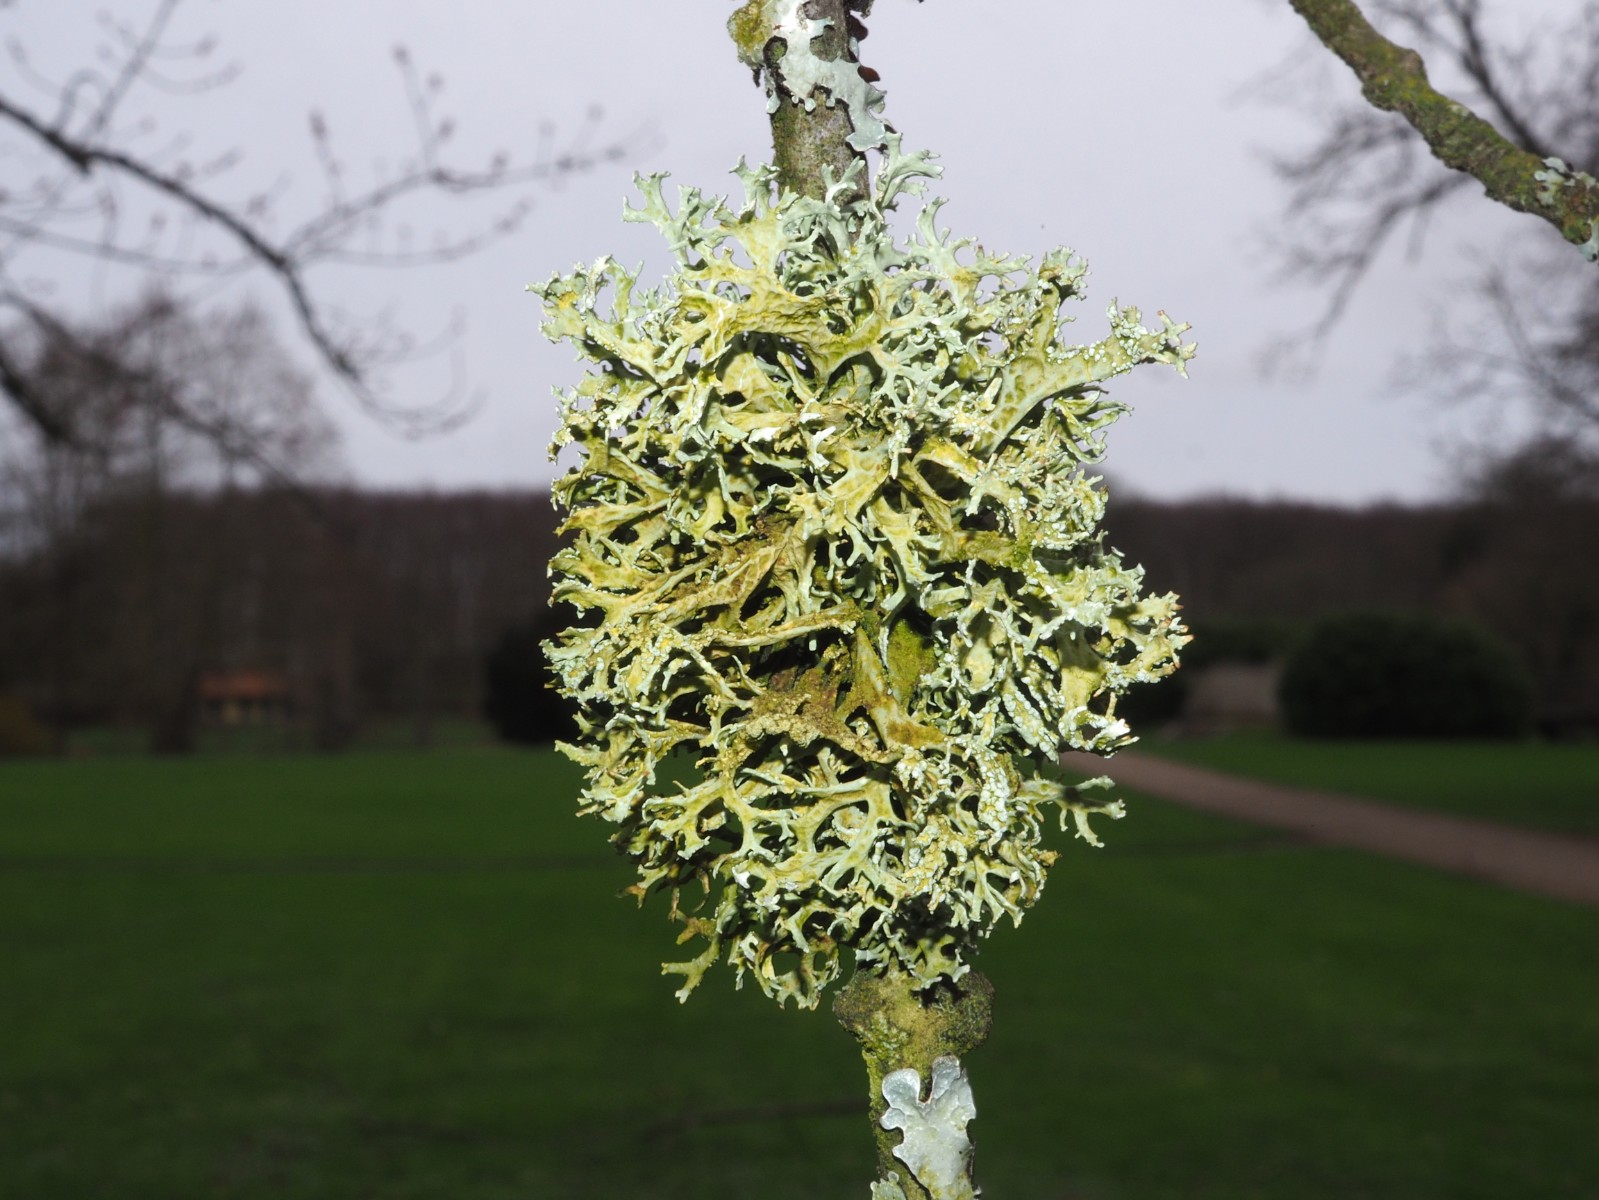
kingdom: Fungi
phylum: Ascomycota
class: Lecanoromycetes
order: Lecanorales
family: Parmeliaceae
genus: Evernia
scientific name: Evernia prunastri
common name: almindelig slåenlav
